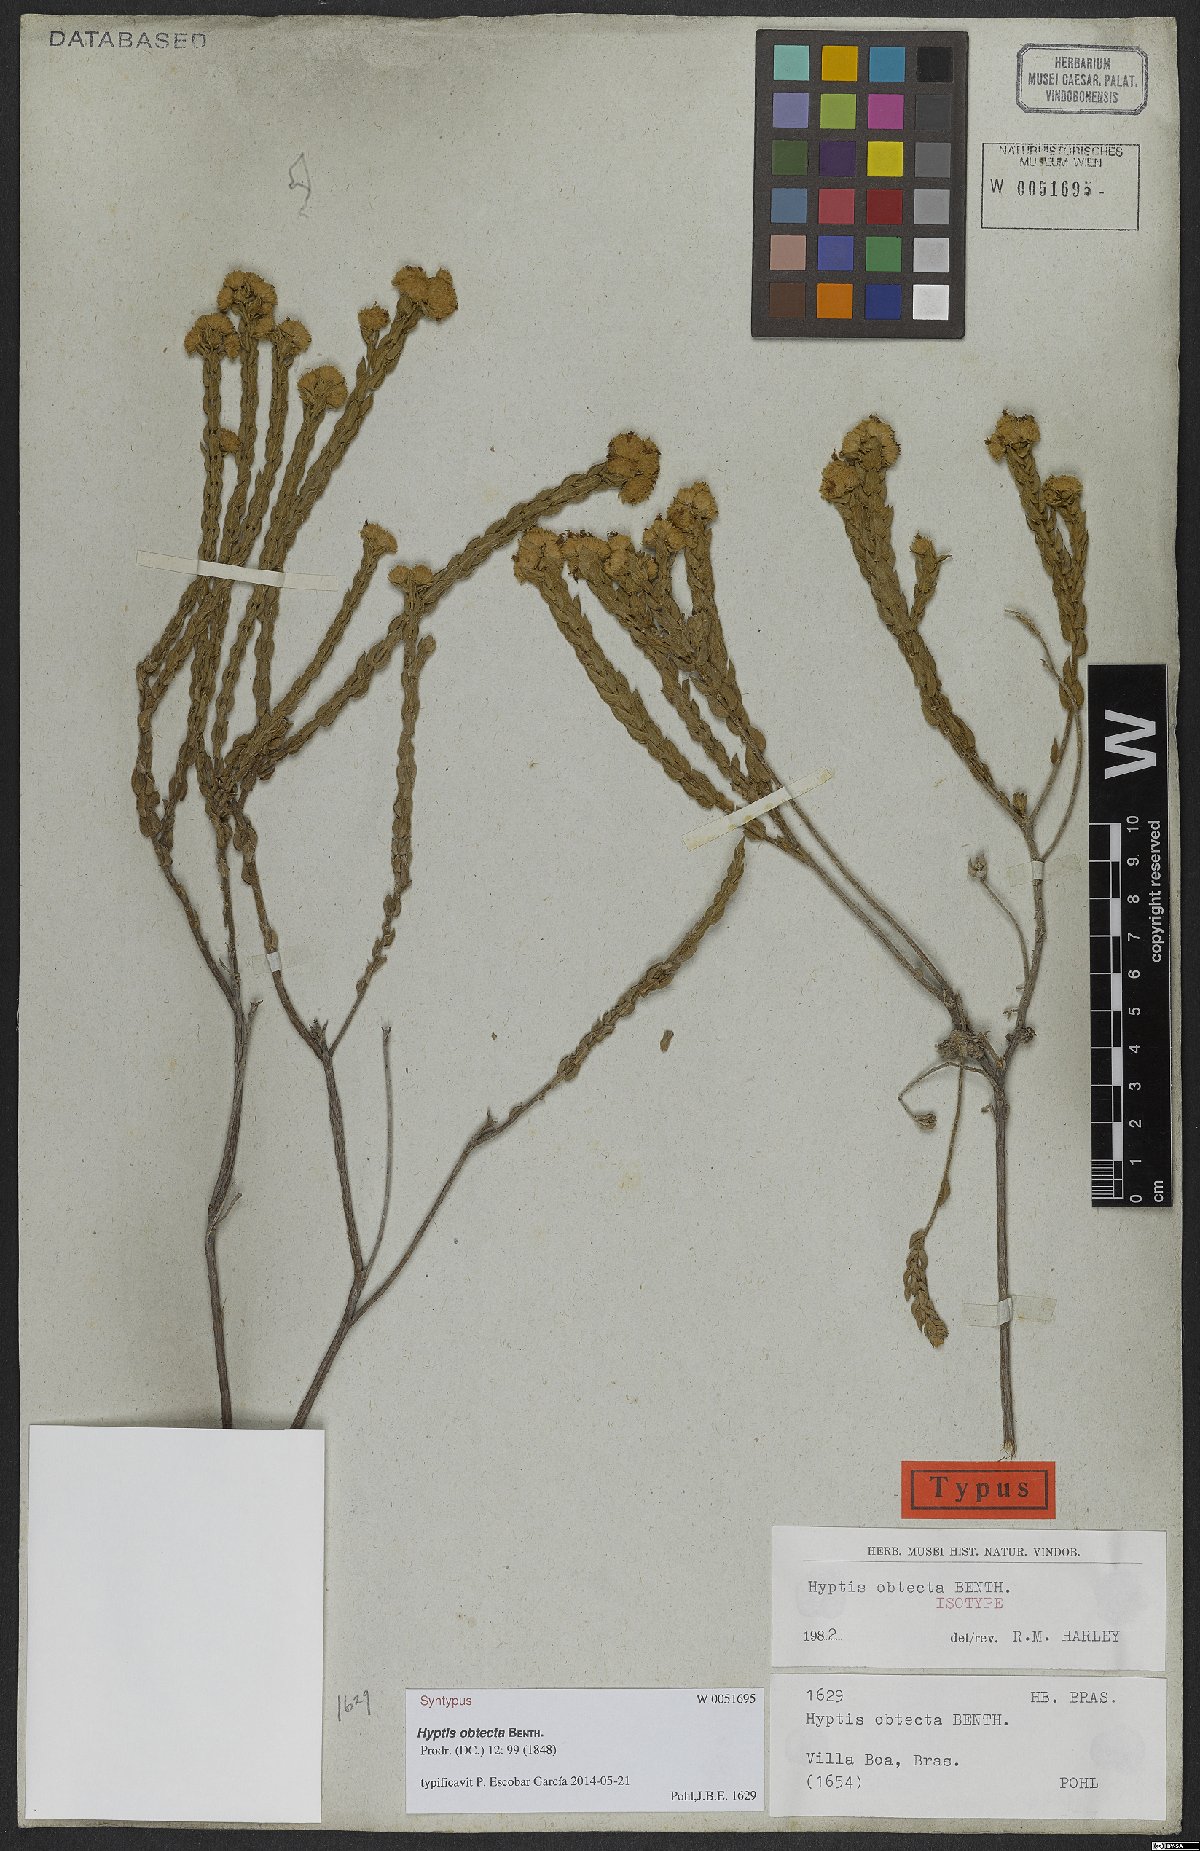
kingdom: Plantae
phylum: Tracheophyta
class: Magnoliopsida
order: Lamiales
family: Lamiaceae
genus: Hyptis
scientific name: Hyptis obtecta
